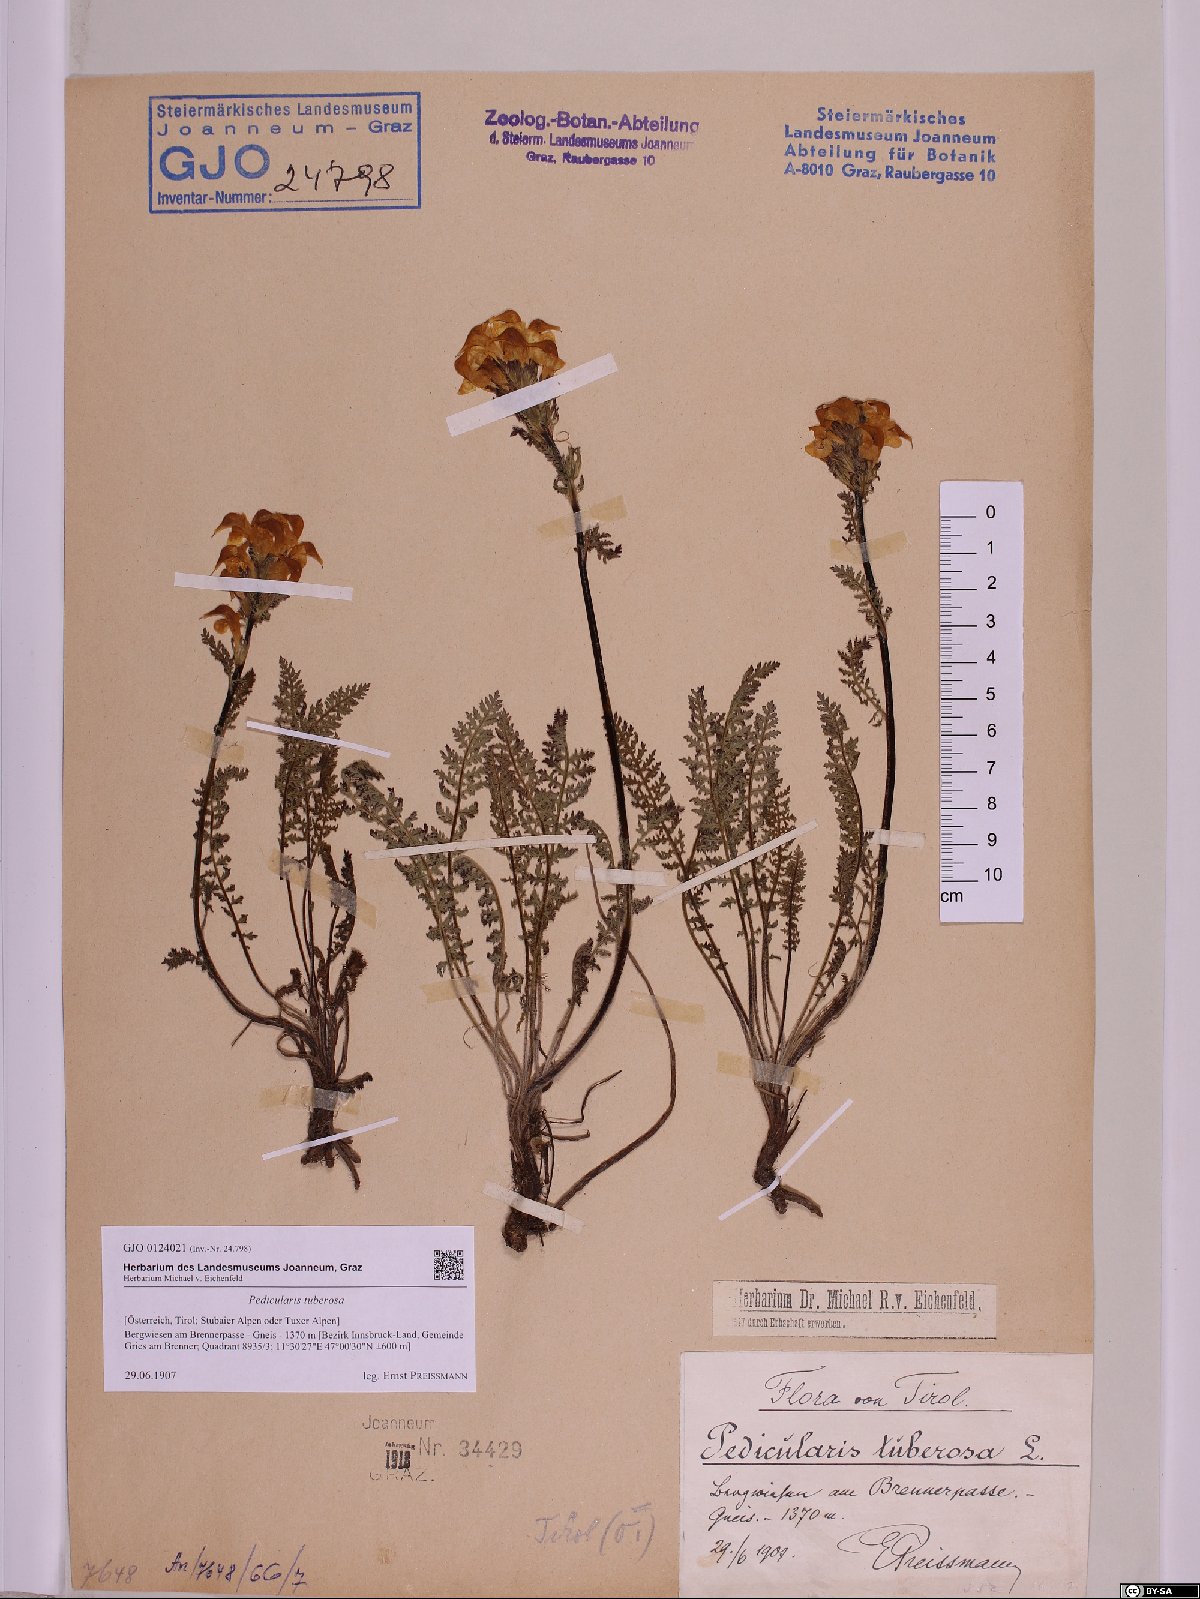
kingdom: Plantae
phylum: Tracheophyta
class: Magnoliopsida
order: Lamiales
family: Orobanchaceae
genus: Pedicularis
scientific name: Pedicularis tuberosa
